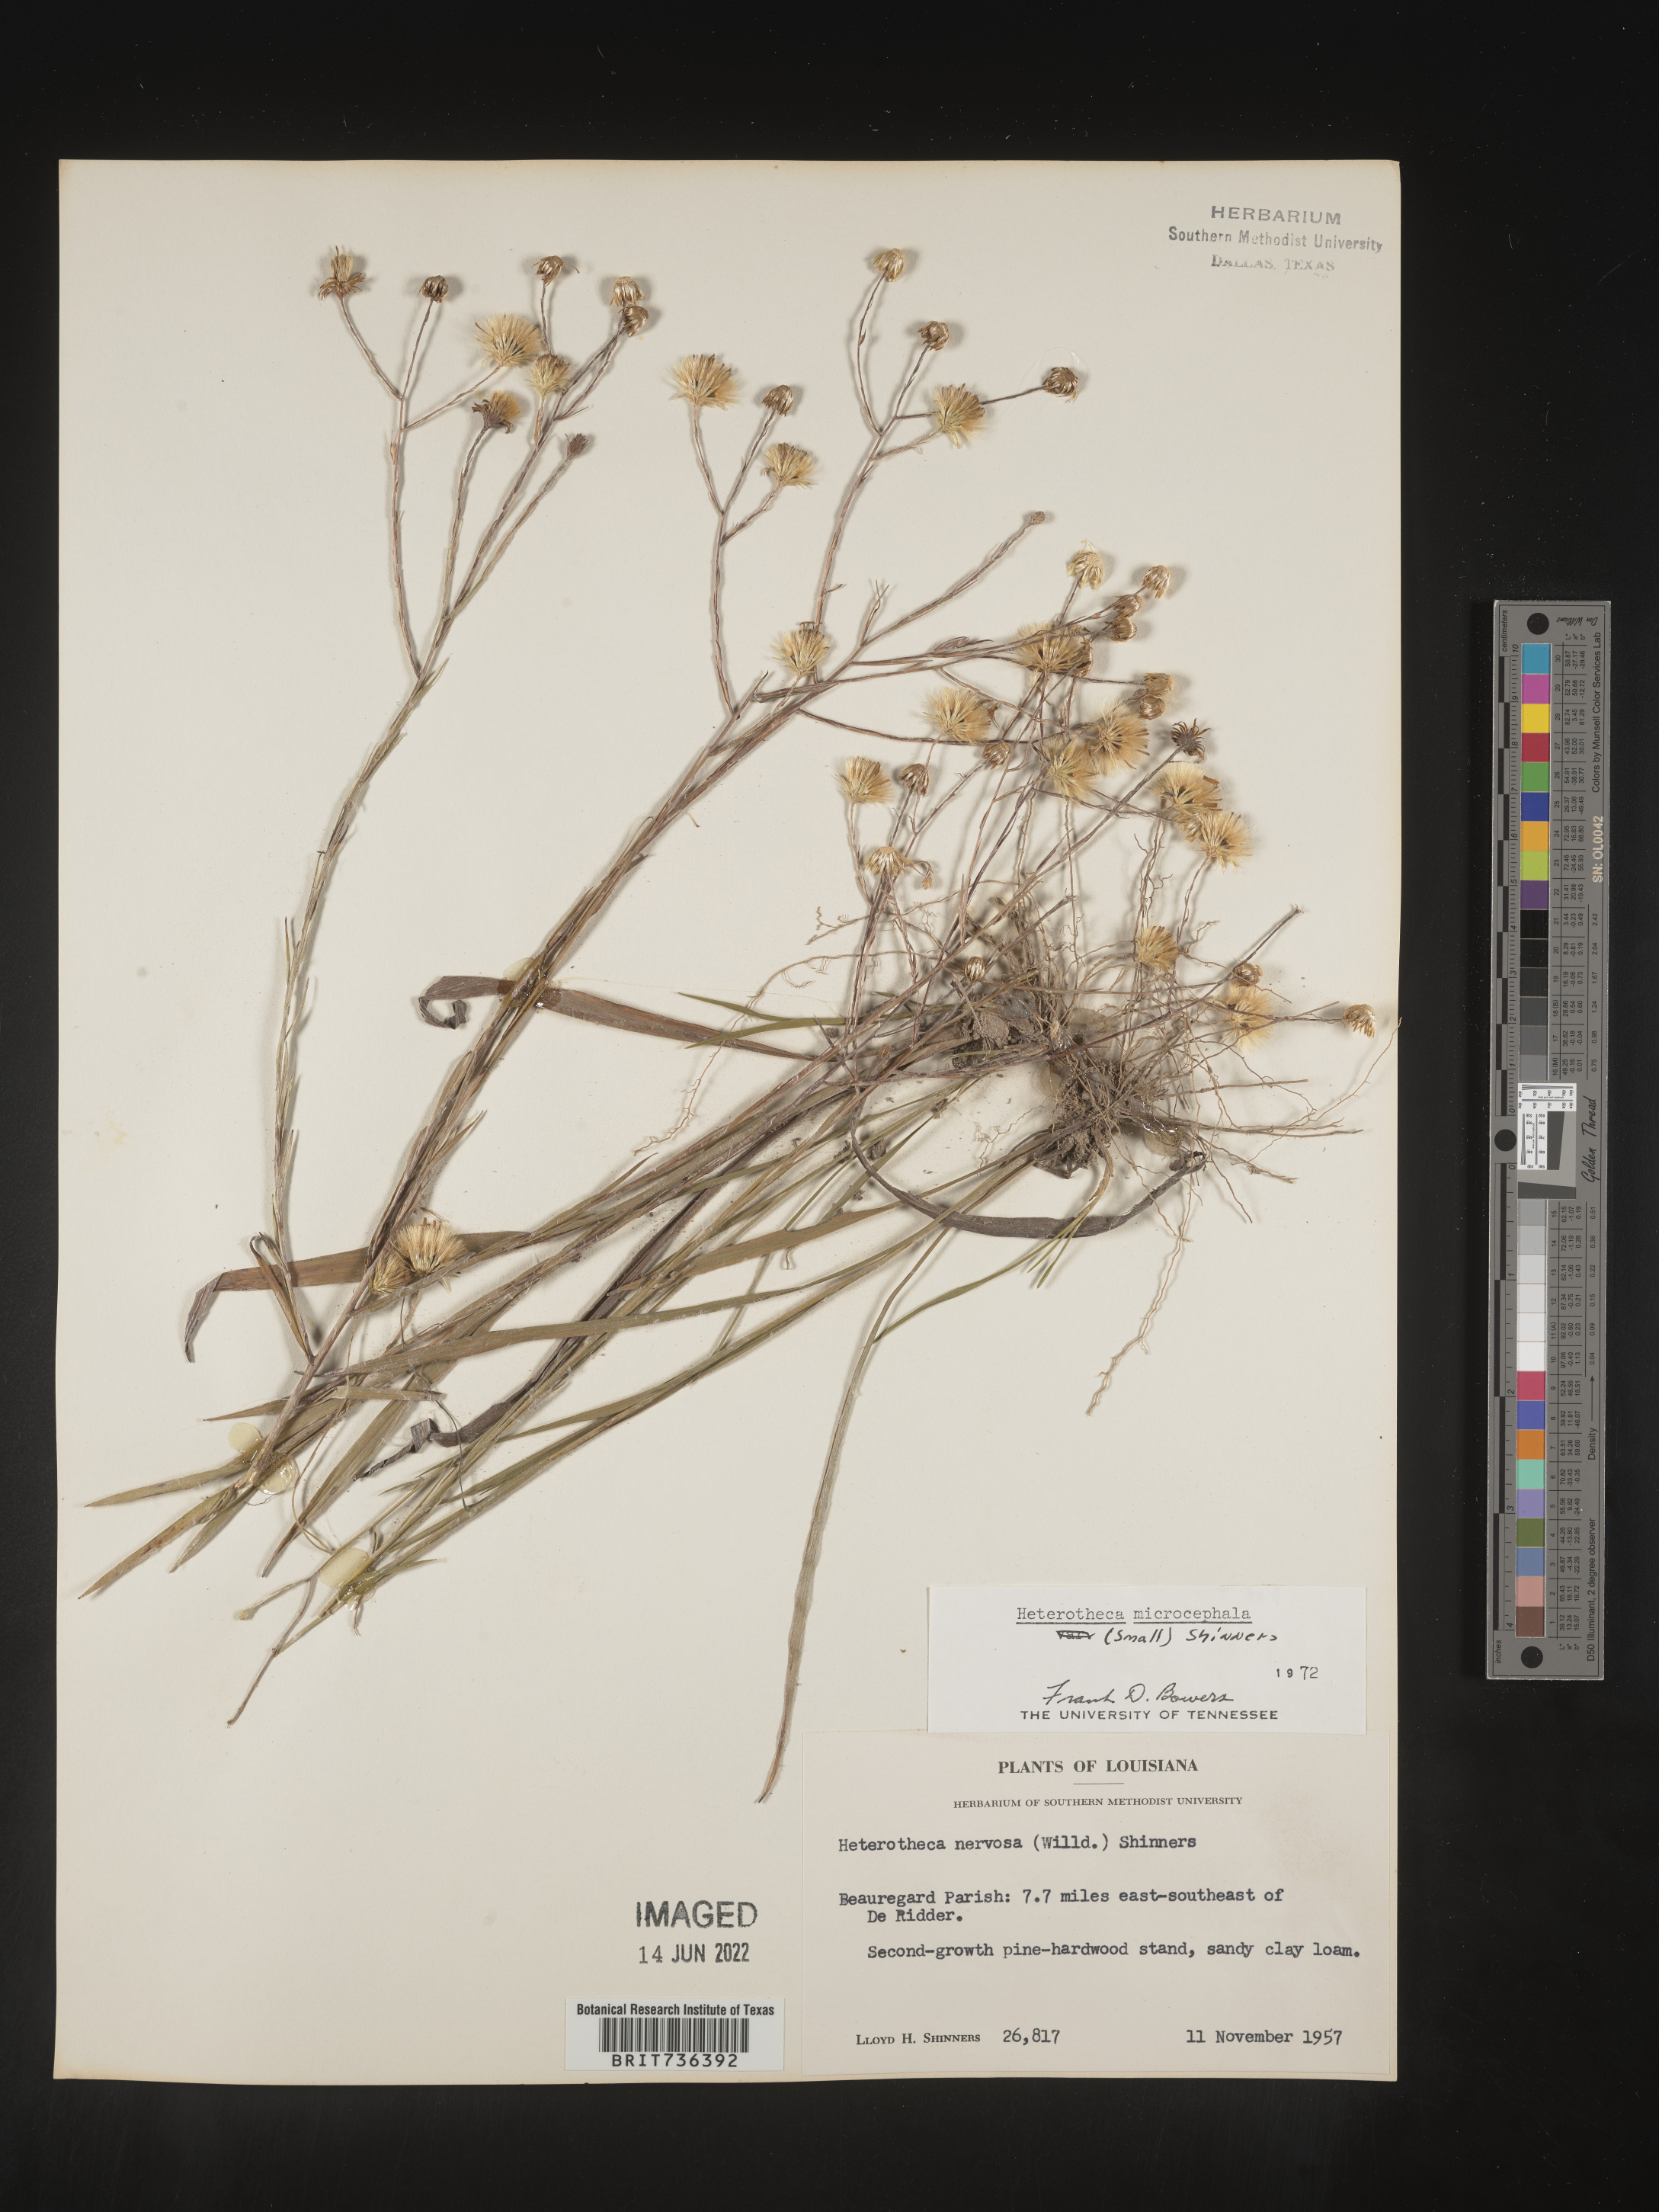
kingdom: Plantae
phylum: Tracheophyta
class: Magnoliopsida
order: Asterales
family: Asteraceae
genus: Pityopsis
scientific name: Pityopsis tenuifolia
